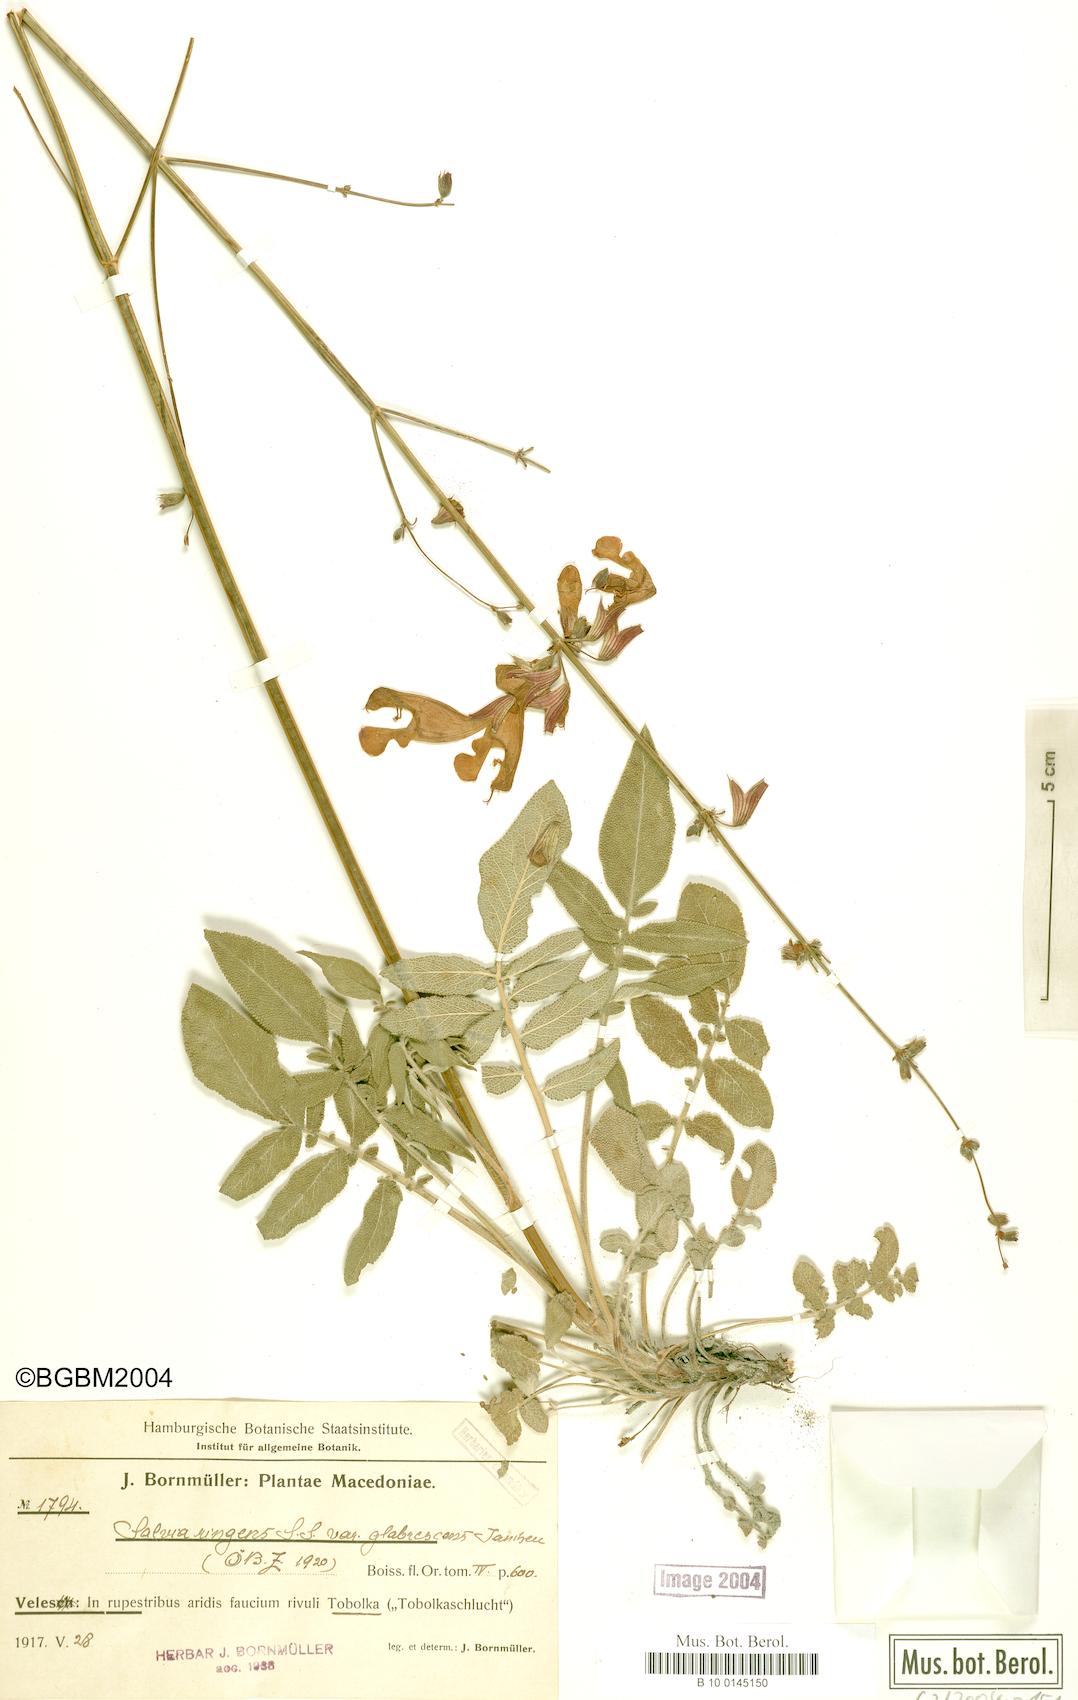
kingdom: Plantae
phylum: Tracheophyta
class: Magnoliopsida
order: Lamiales
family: Lamiaceae
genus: Salvia
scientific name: Salvia ringens
